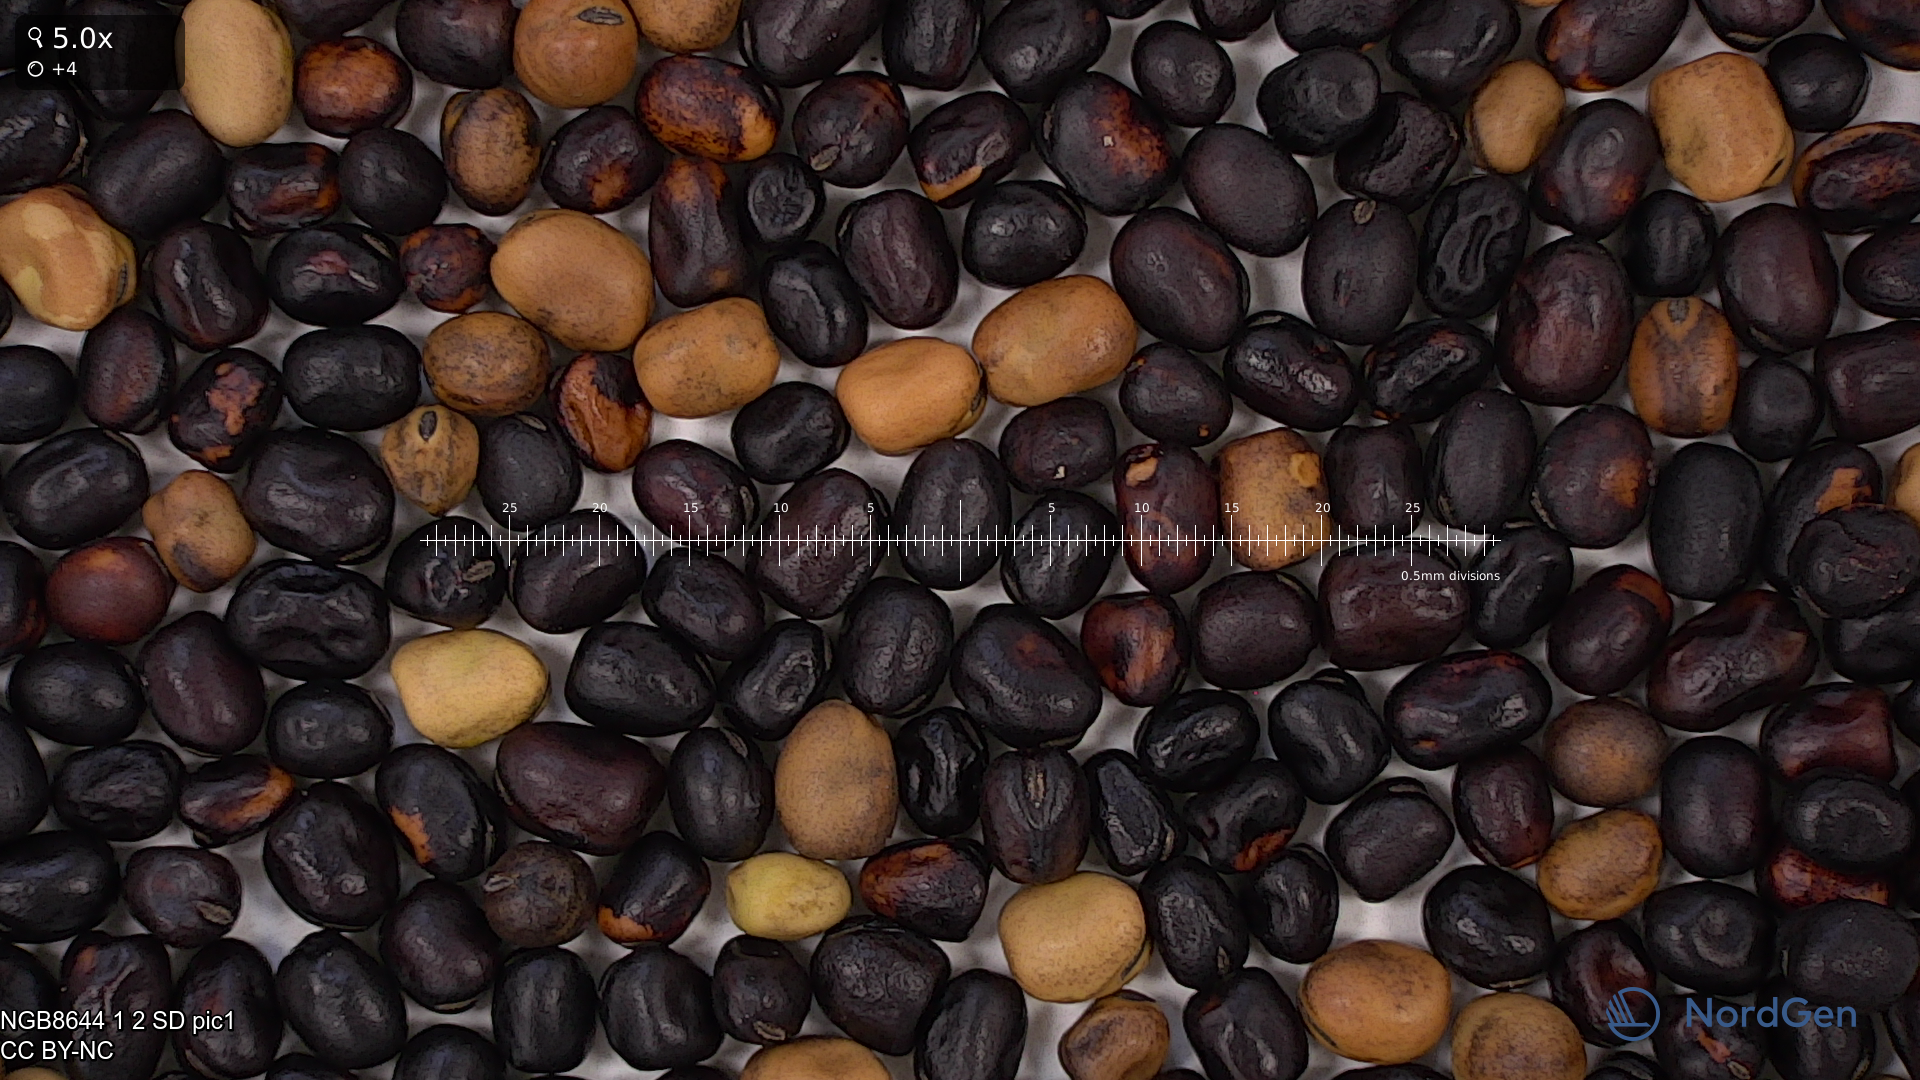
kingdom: Plantae
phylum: Tracheophyta
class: Magnoliopsida
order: Fabales
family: Fabaceae
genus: Vicia
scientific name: Vicia faba
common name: Broad bean
